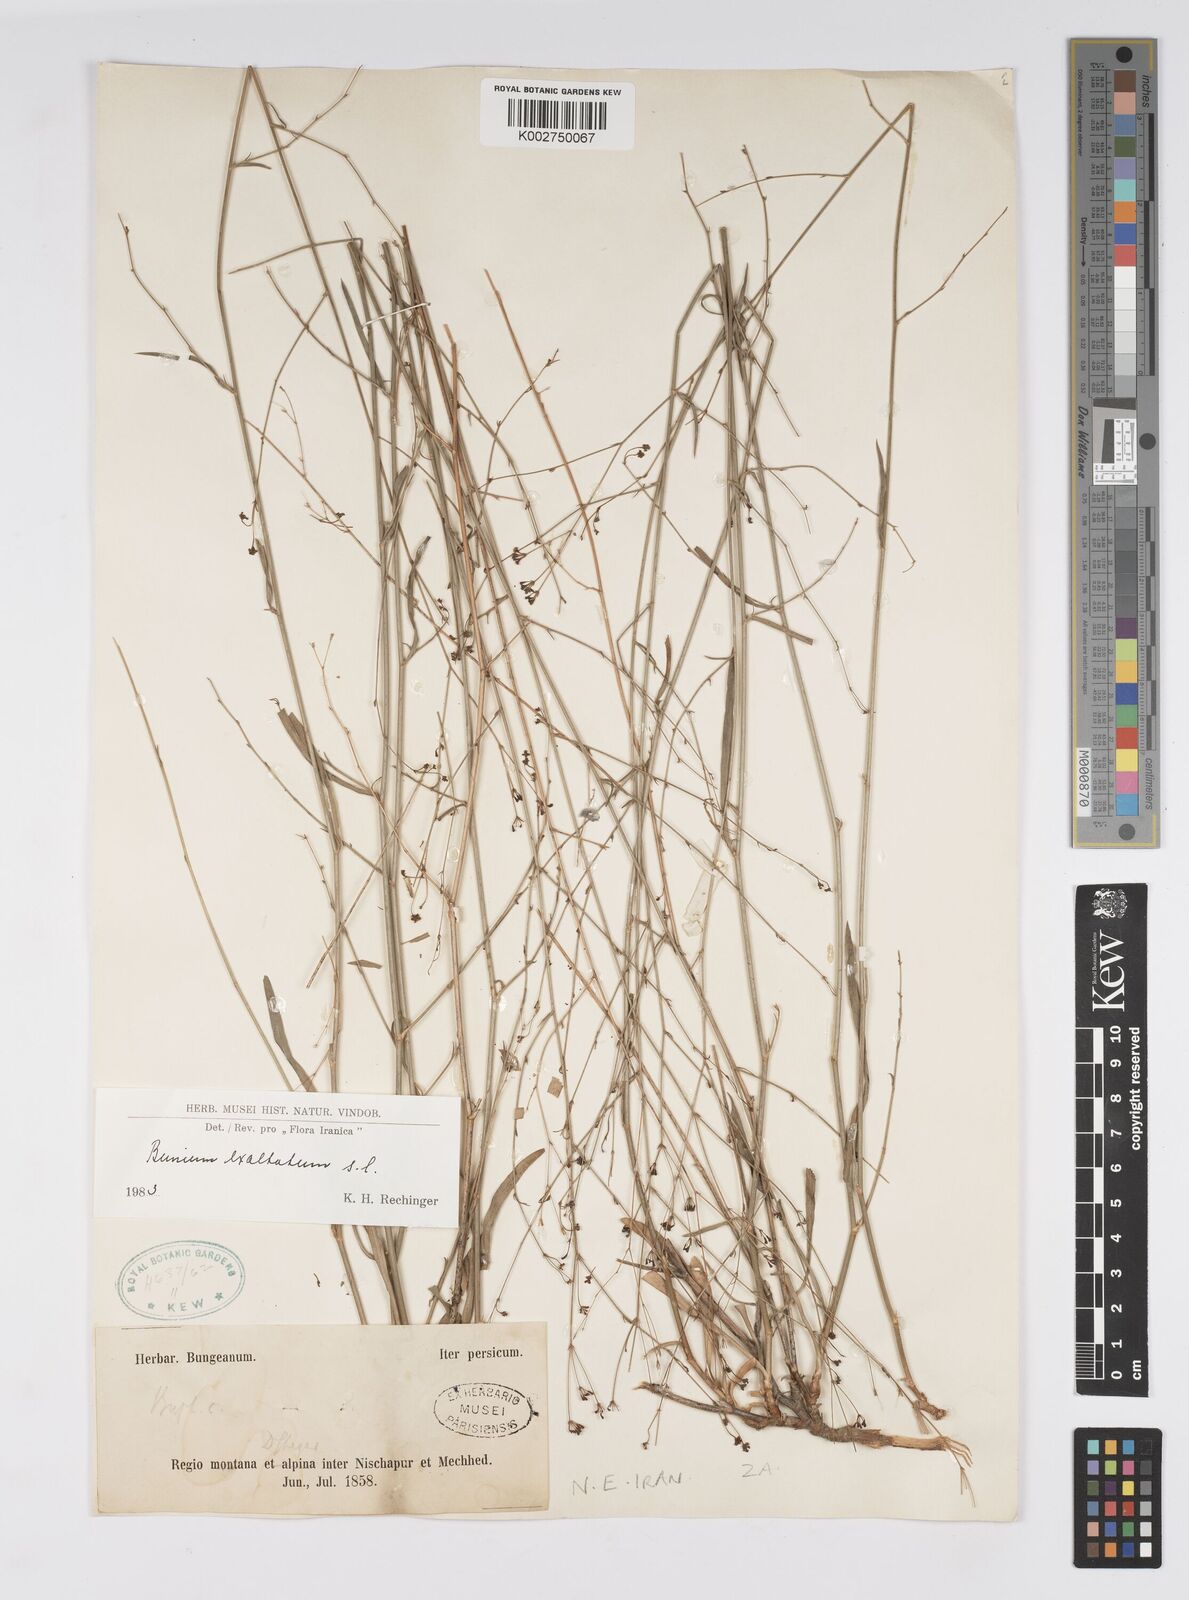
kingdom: Plantae
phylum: Tracheophyta
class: Magnoliopsida
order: Apiales
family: Apiaceae
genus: Bupleurum
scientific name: Bupleurum
